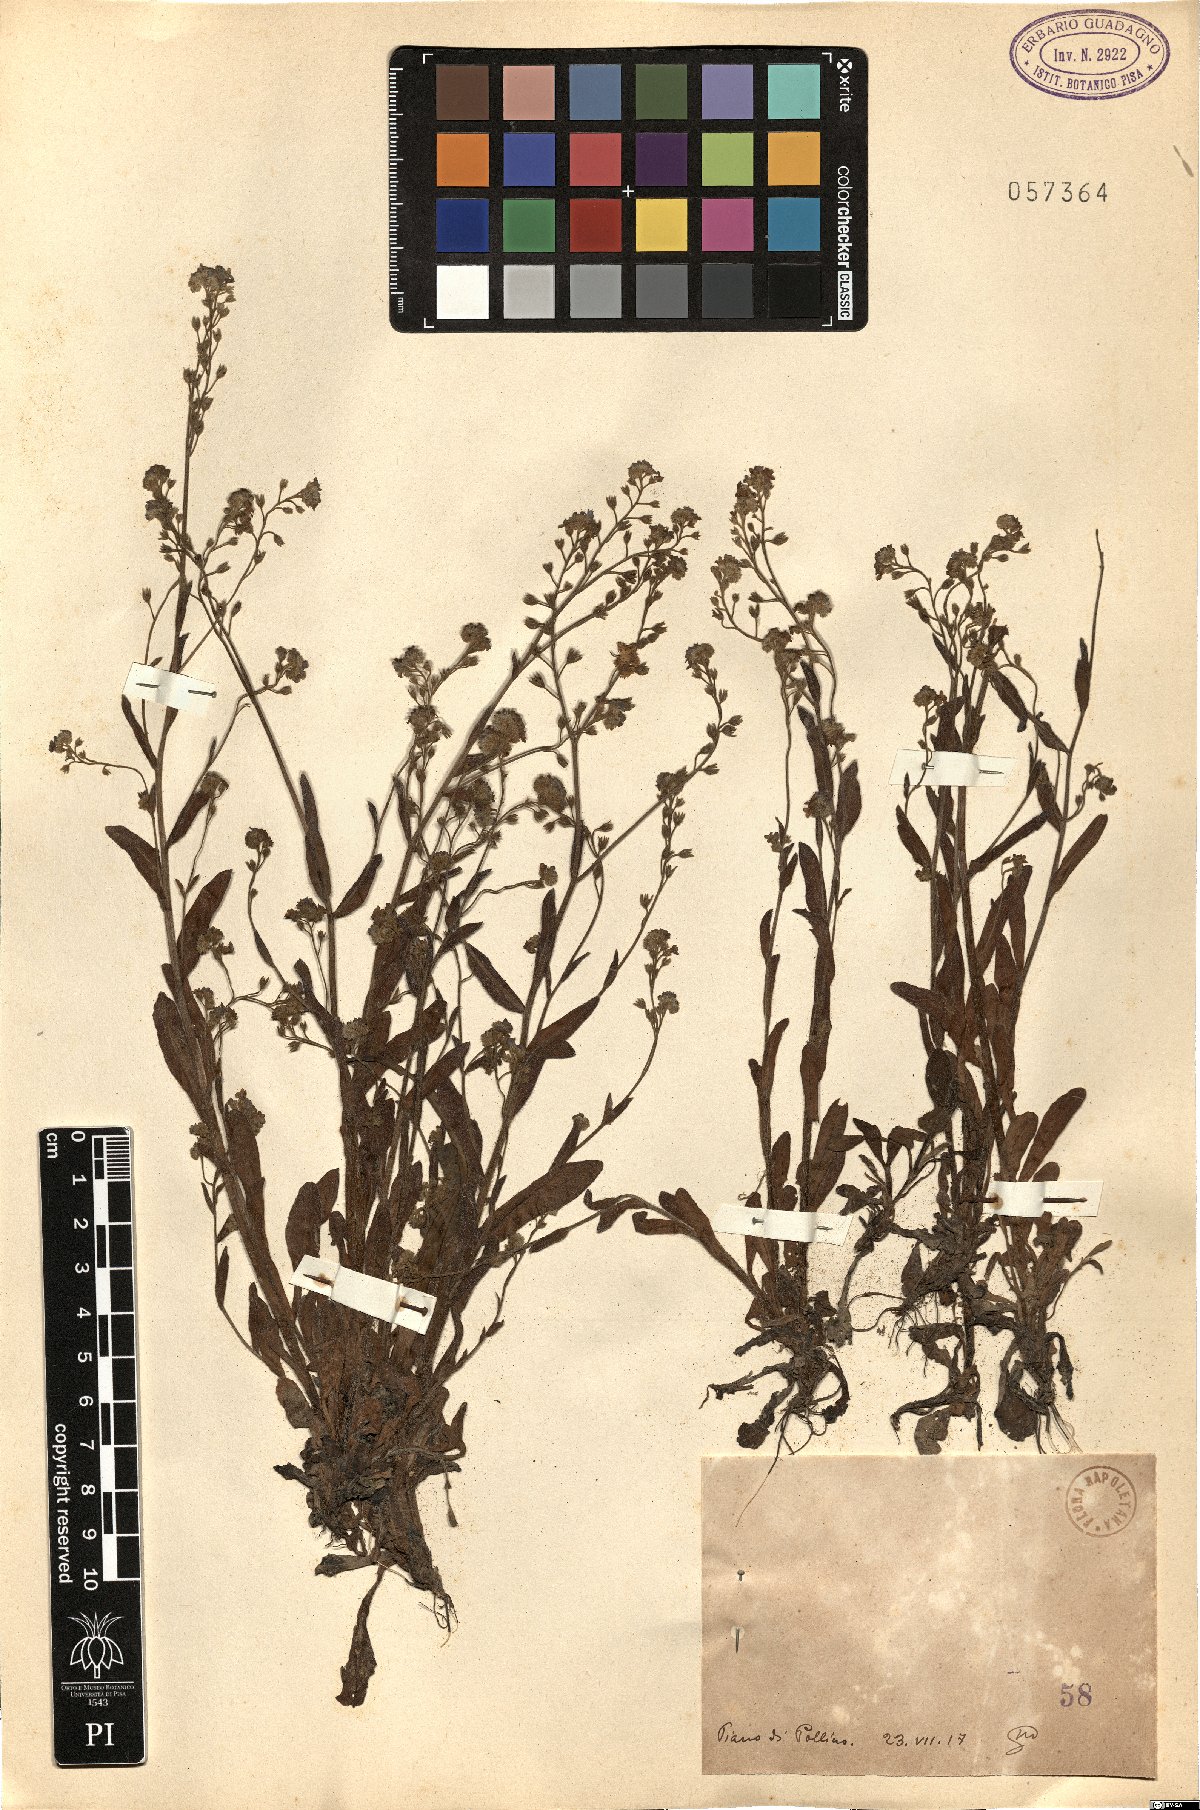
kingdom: Plantae
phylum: Tracheophyta
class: Magnoliopsida
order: Boraginales
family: Boraginaceae
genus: Myosotis
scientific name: Myosotis
